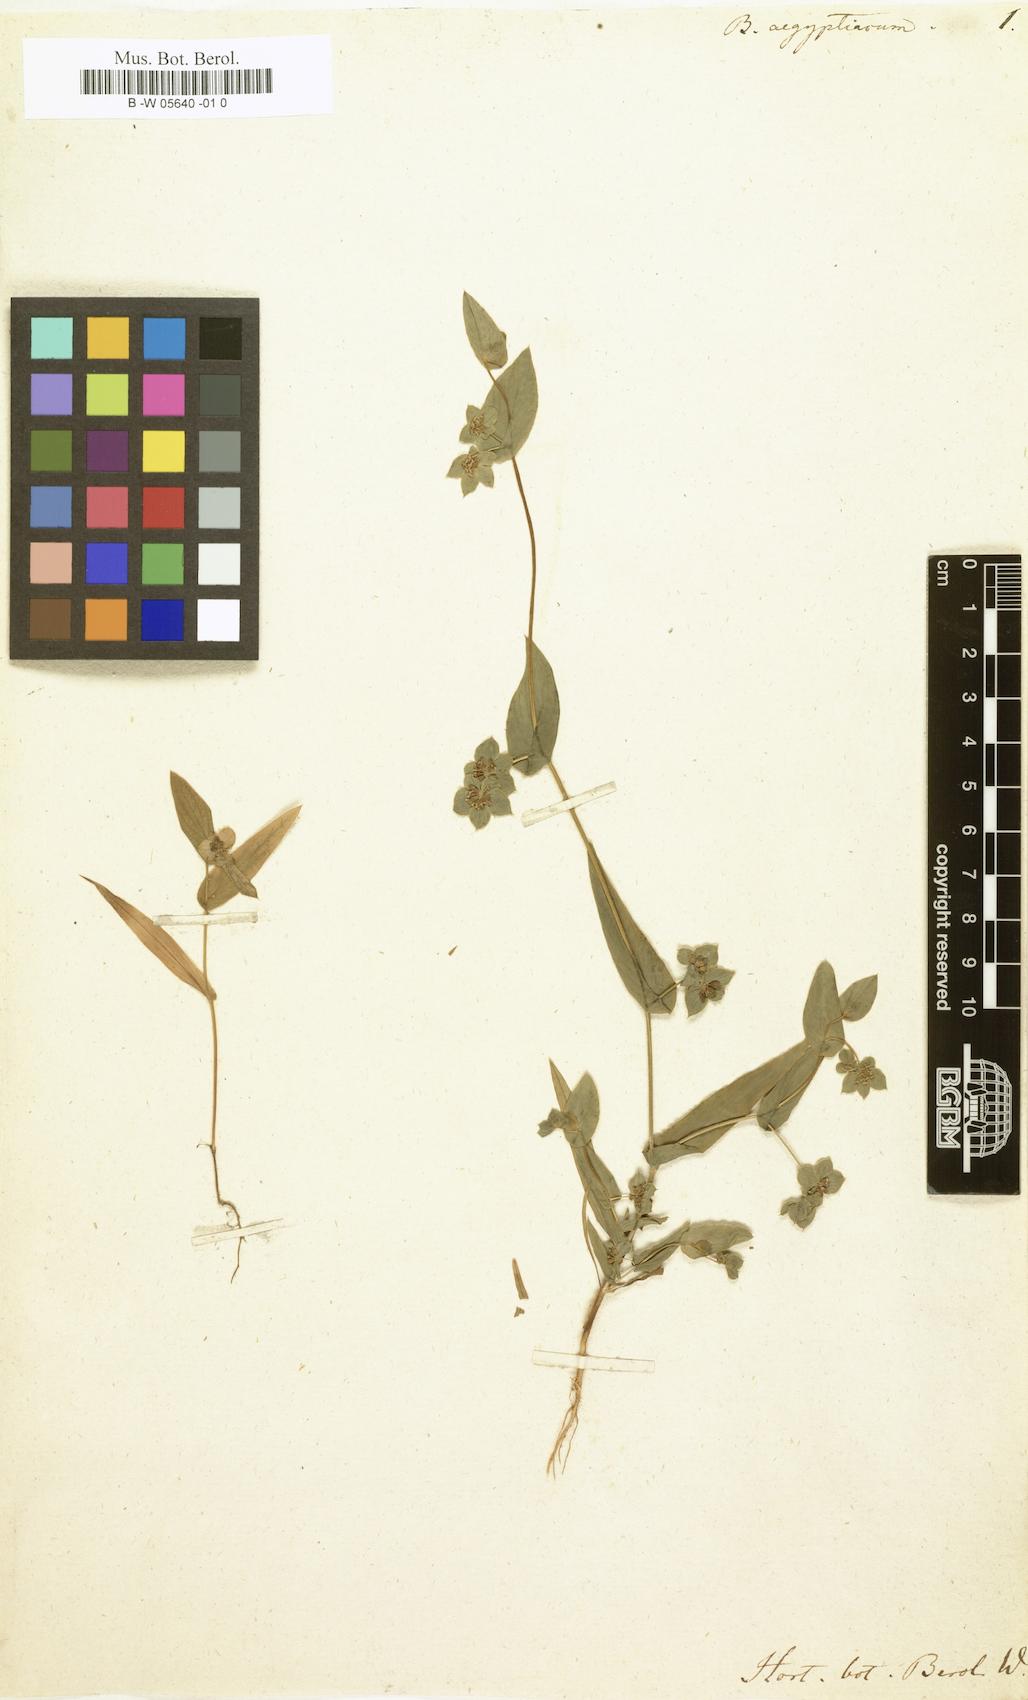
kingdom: Plantae
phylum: Tracheophyta
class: Magnoliopsida
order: Apiales
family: Apiaceae
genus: Bupleurum
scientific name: Bupleurum
